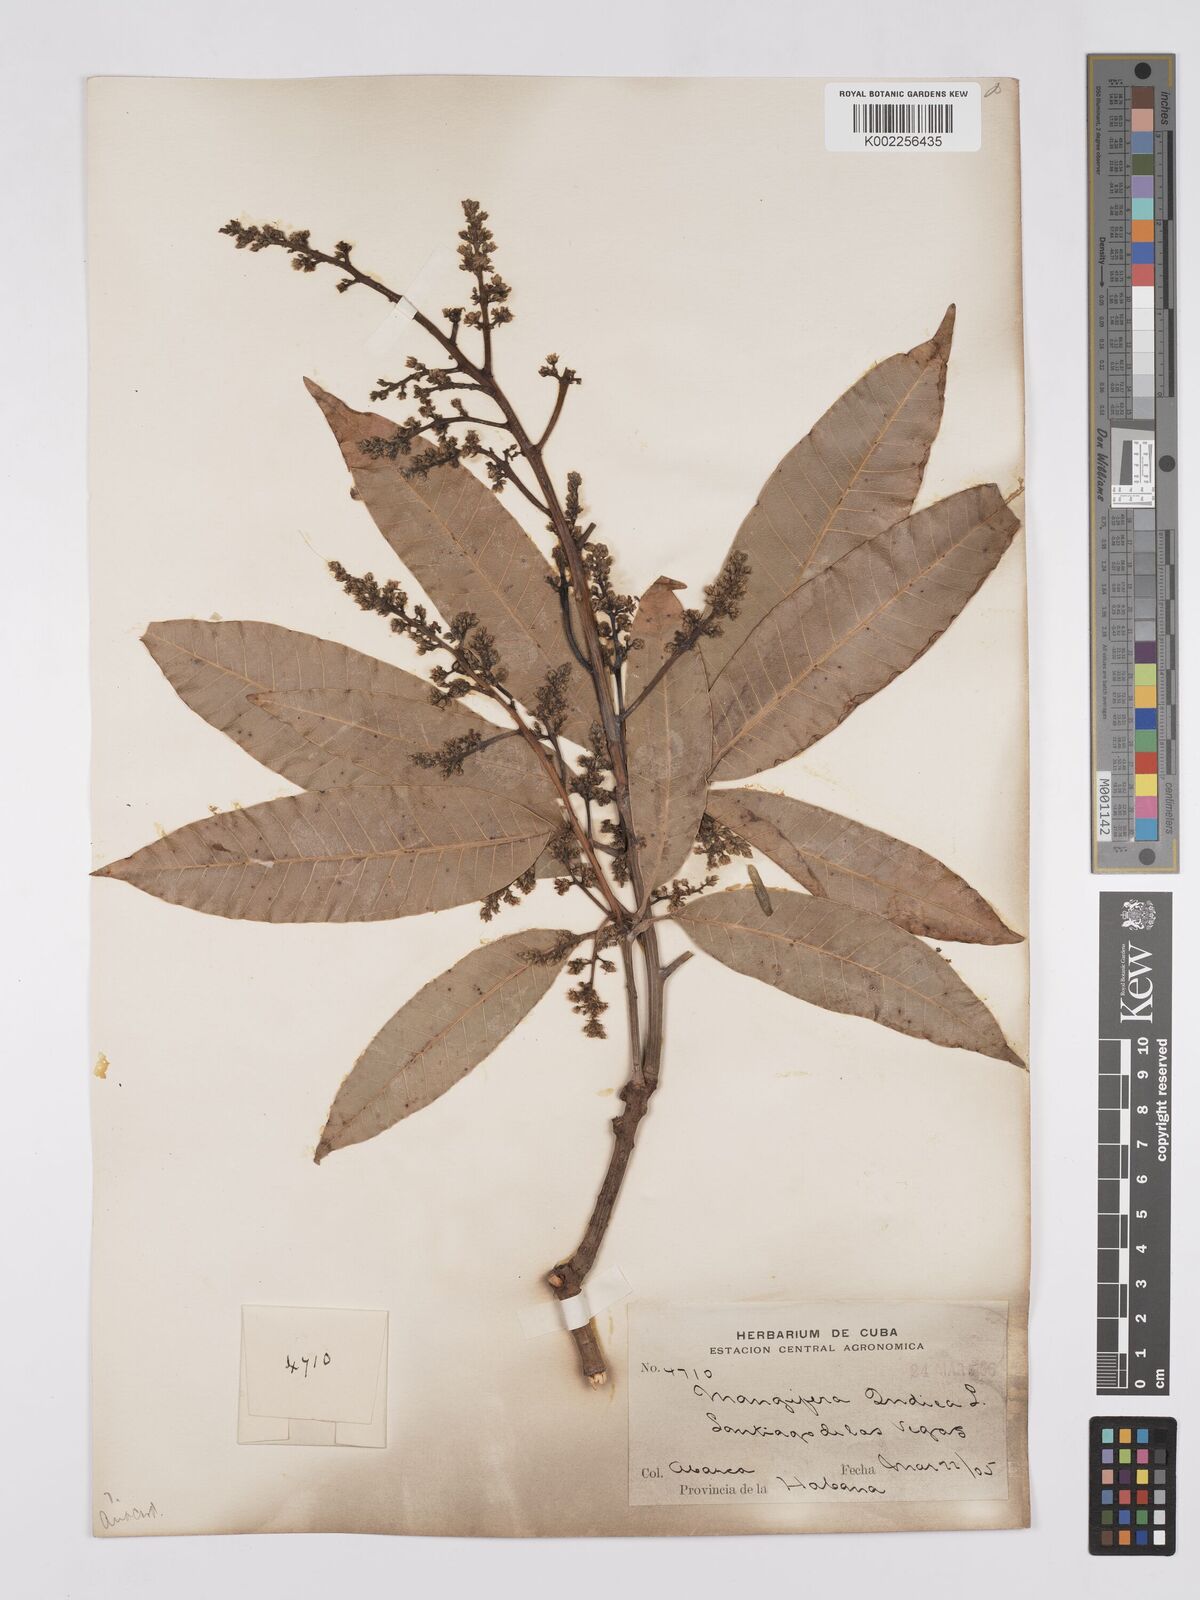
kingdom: Plantae
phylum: Tracheophyta
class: Magnoliopsida
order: Sapindales
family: Anacardiaceae
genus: Mangifera
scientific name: Mangifera indica
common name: Mango
